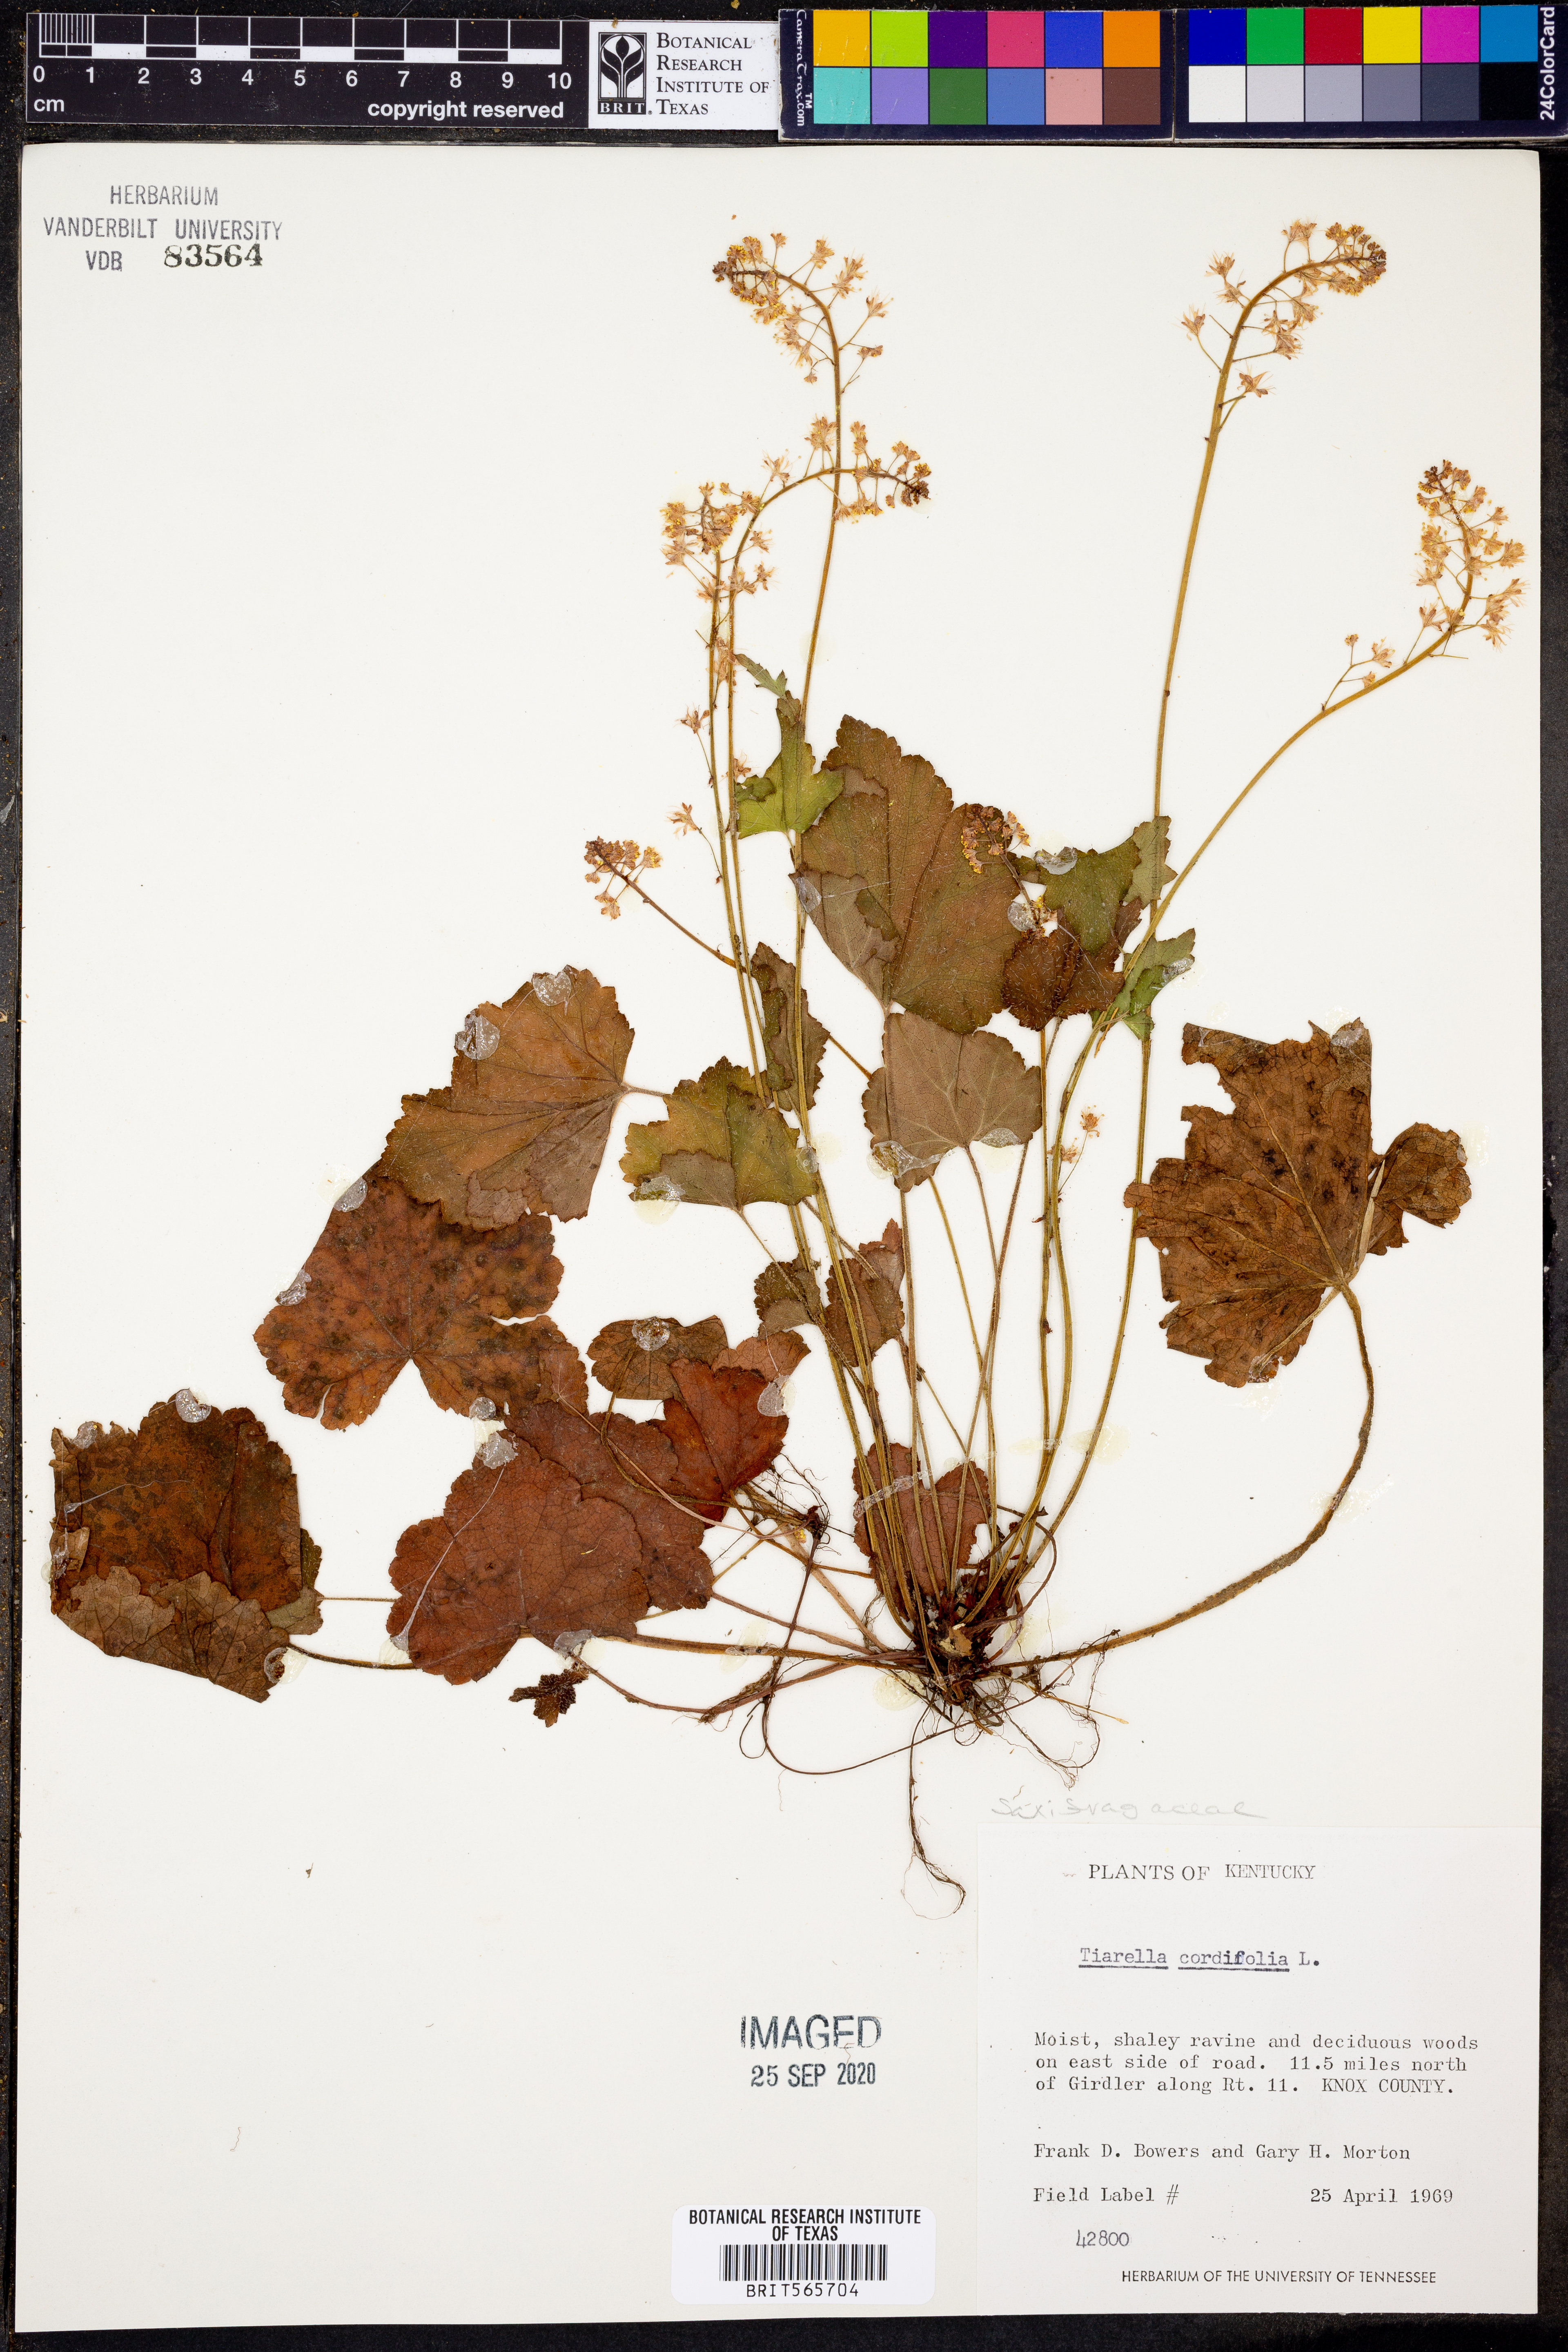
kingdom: Plantae
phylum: Tracheophyta
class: Magnoliopsida
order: Saxifragales
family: Saxifragaceae
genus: Tiarella
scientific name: Tiarella cordifolia
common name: Foamflower
